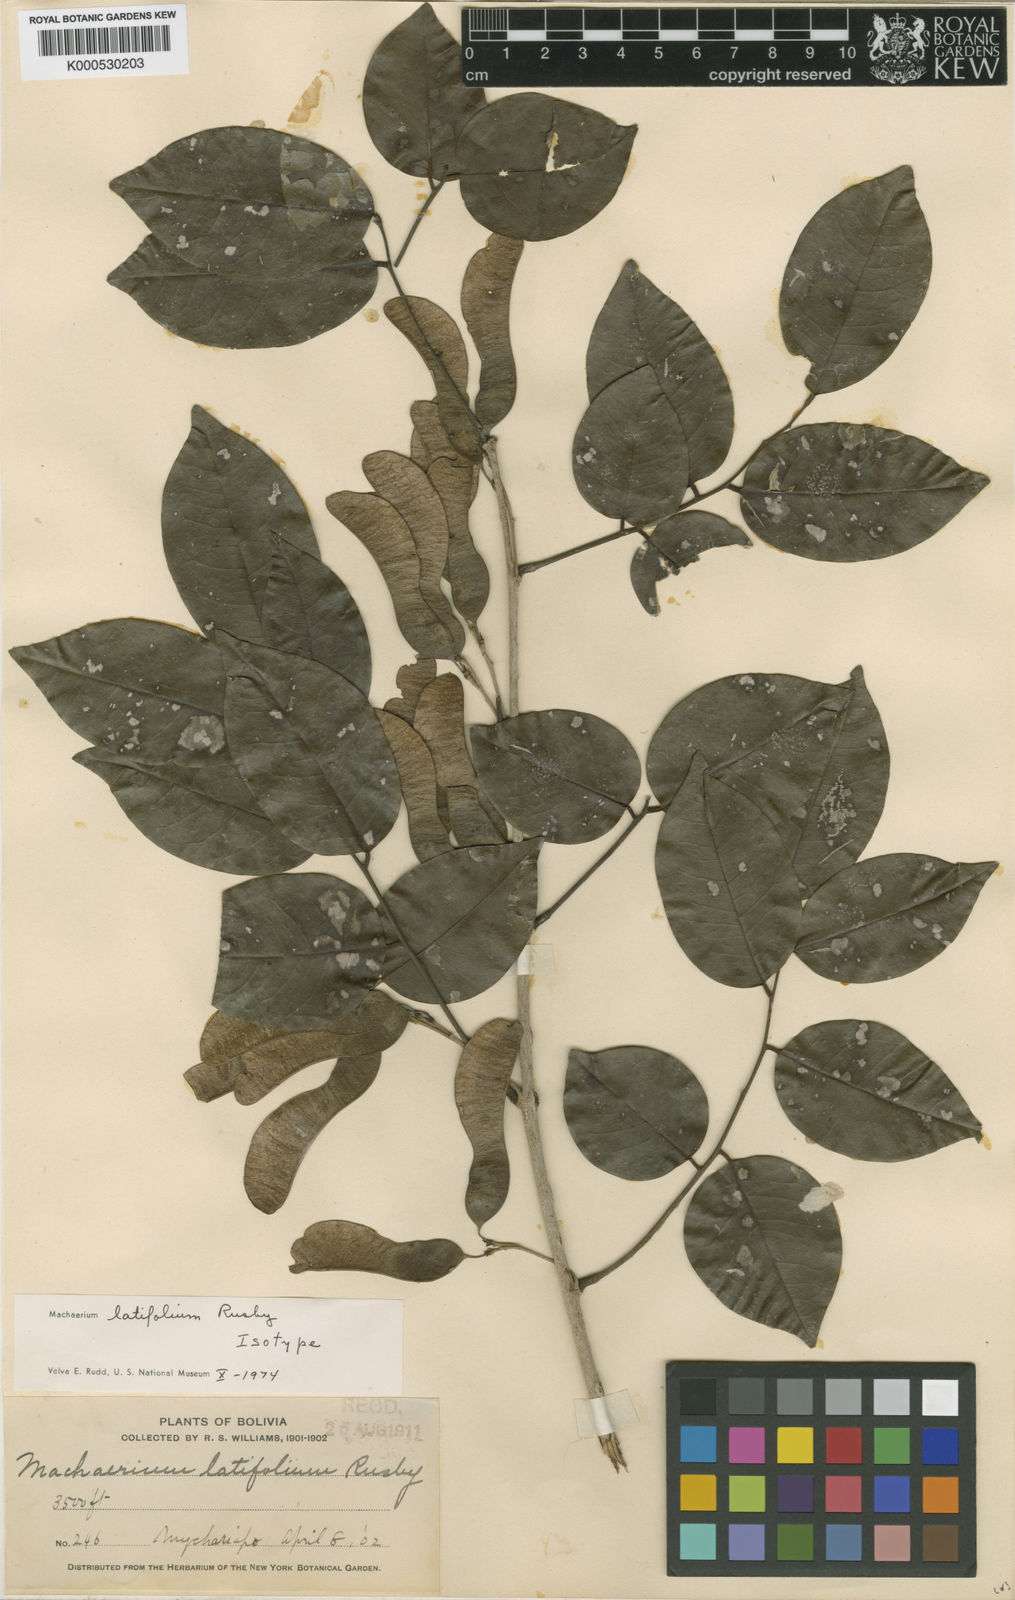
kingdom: Plantae
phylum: Tracheophyta
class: Magnoliopsida
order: Fabales
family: Fabaceae
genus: Machaerium
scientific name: Machaerium latifolium
